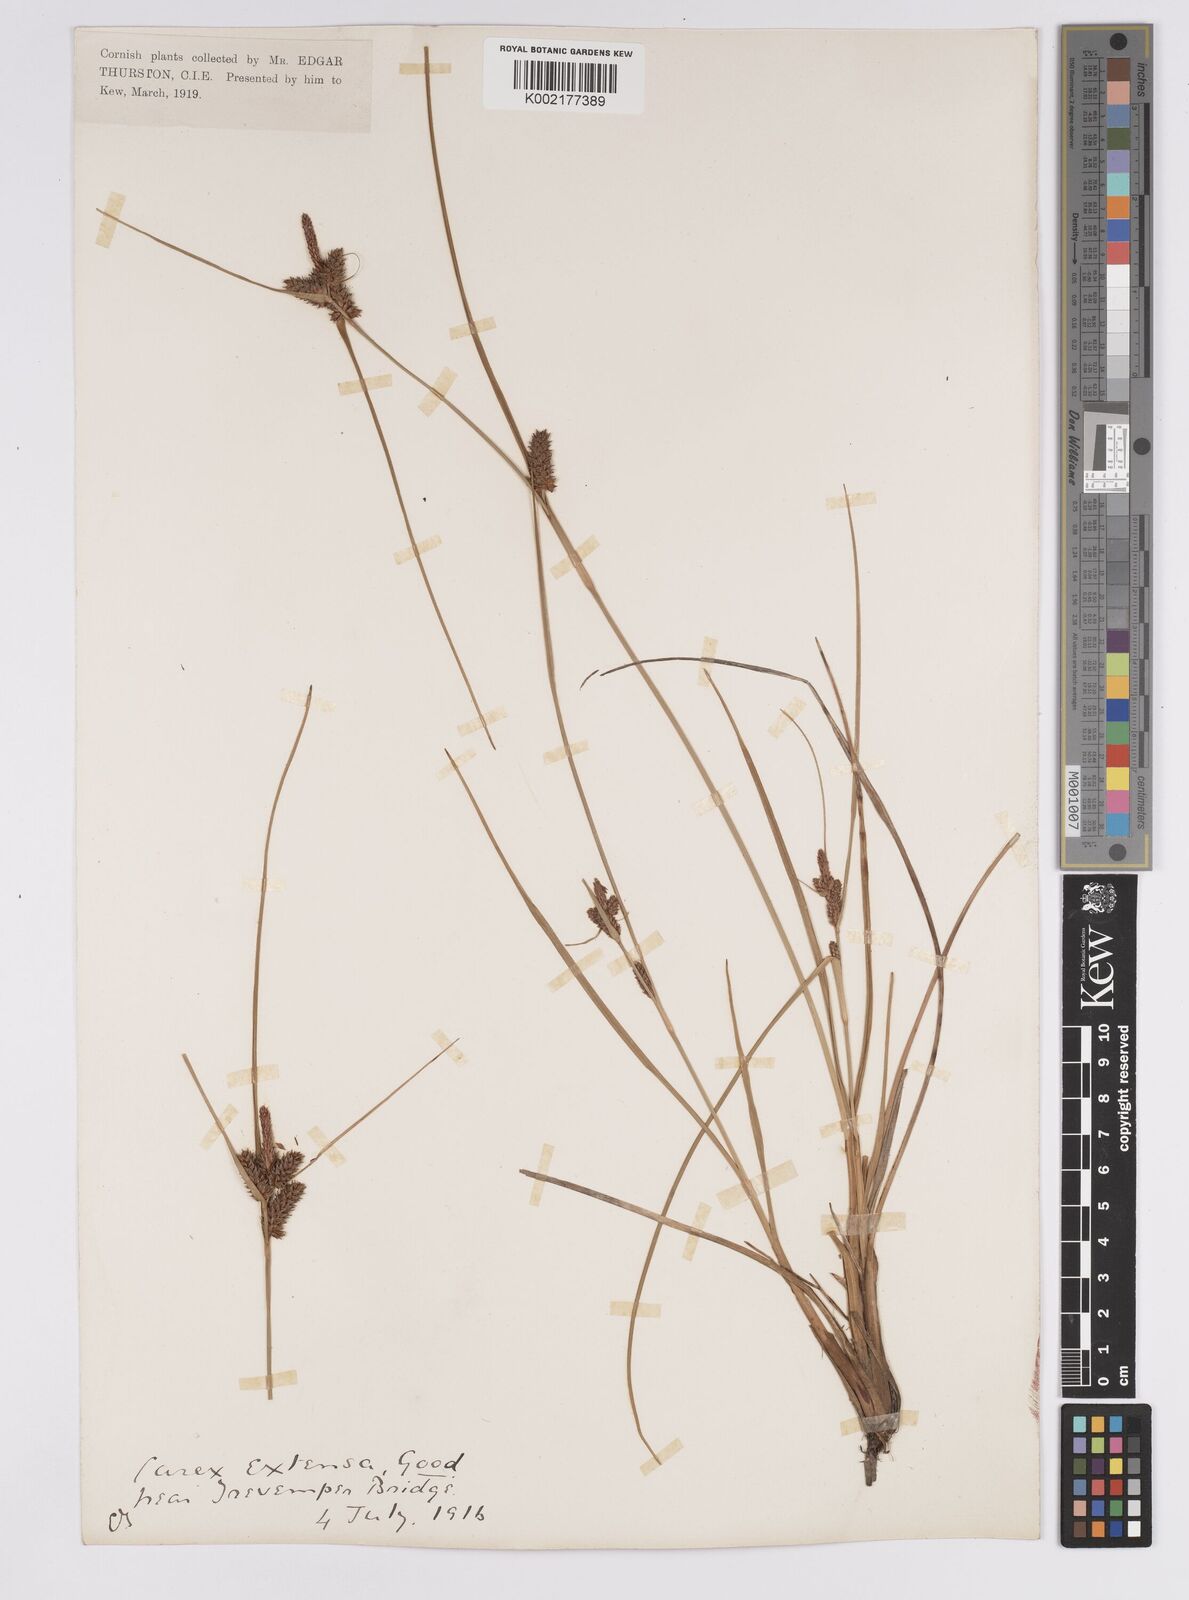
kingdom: Plantae
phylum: Tracheophyta
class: Liliopsida
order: Poales
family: Cyperaceae
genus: Carex
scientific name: Carex extensa
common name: Long-bracted sedge
